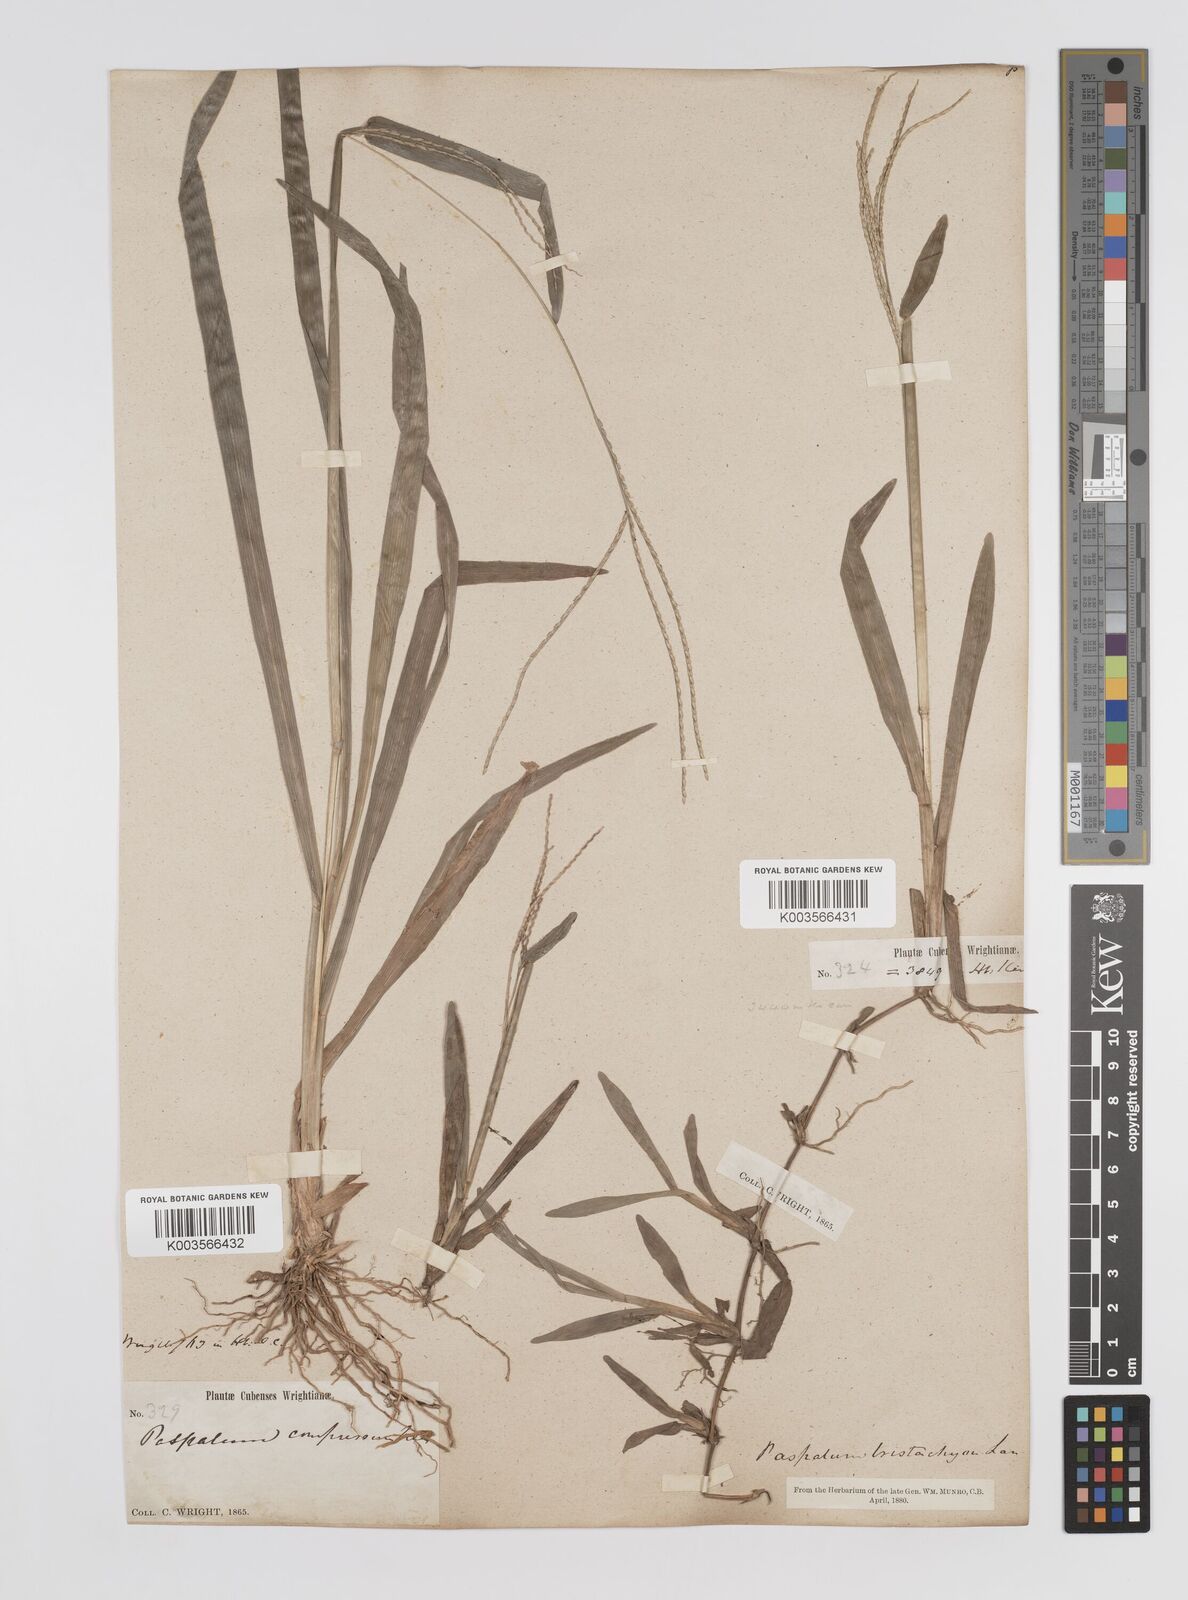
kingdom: Plantae
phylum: Tracheophyta
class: Liliopsida
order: Poales
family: Poaceae
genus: Axonopus
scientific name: Axonopus compressus
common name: American carpet grass
